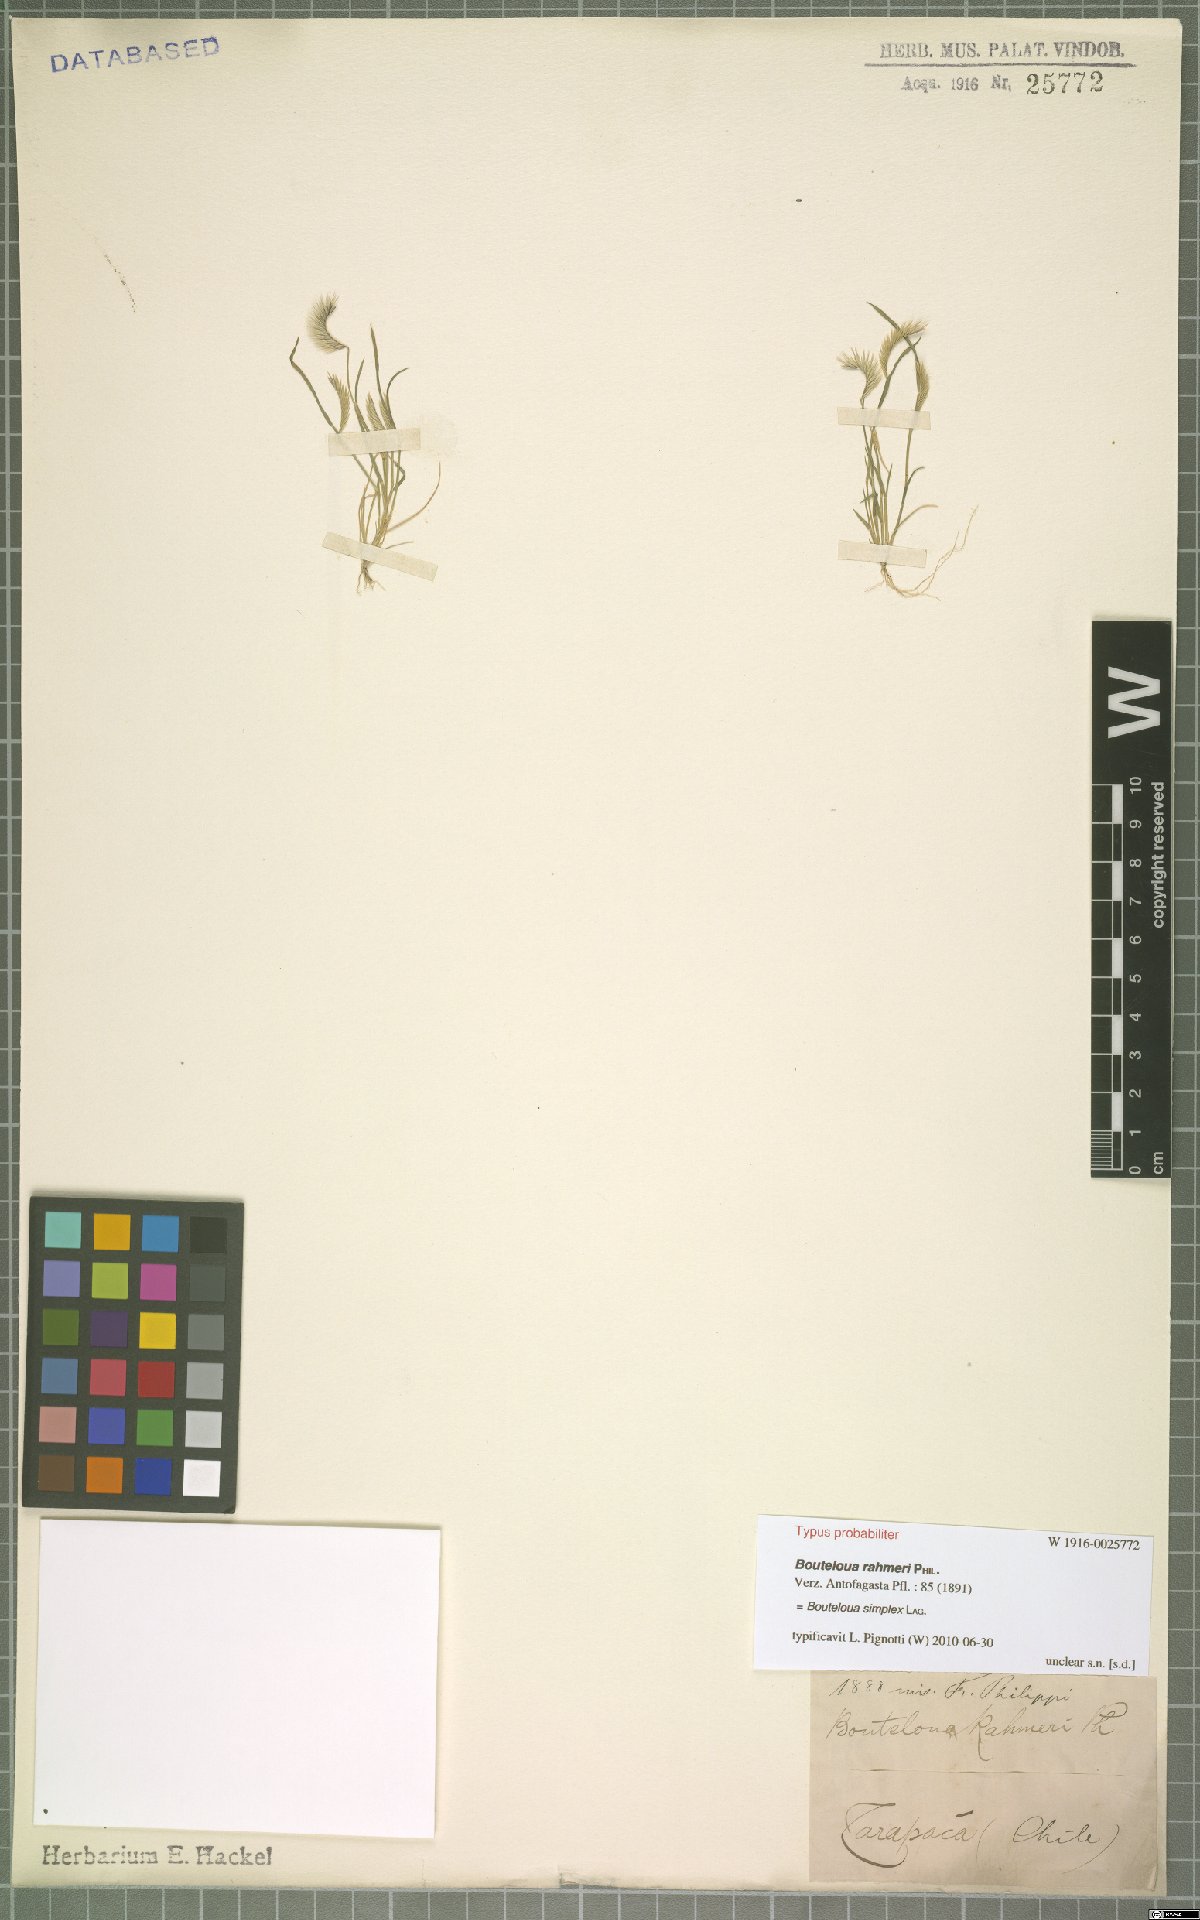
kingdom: Plantae
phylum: Tracheophyta
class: Liliopsida
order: Poales
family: Poaceae
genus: Bouteloua
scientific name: Bouteloua simplex
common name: Mat grama
